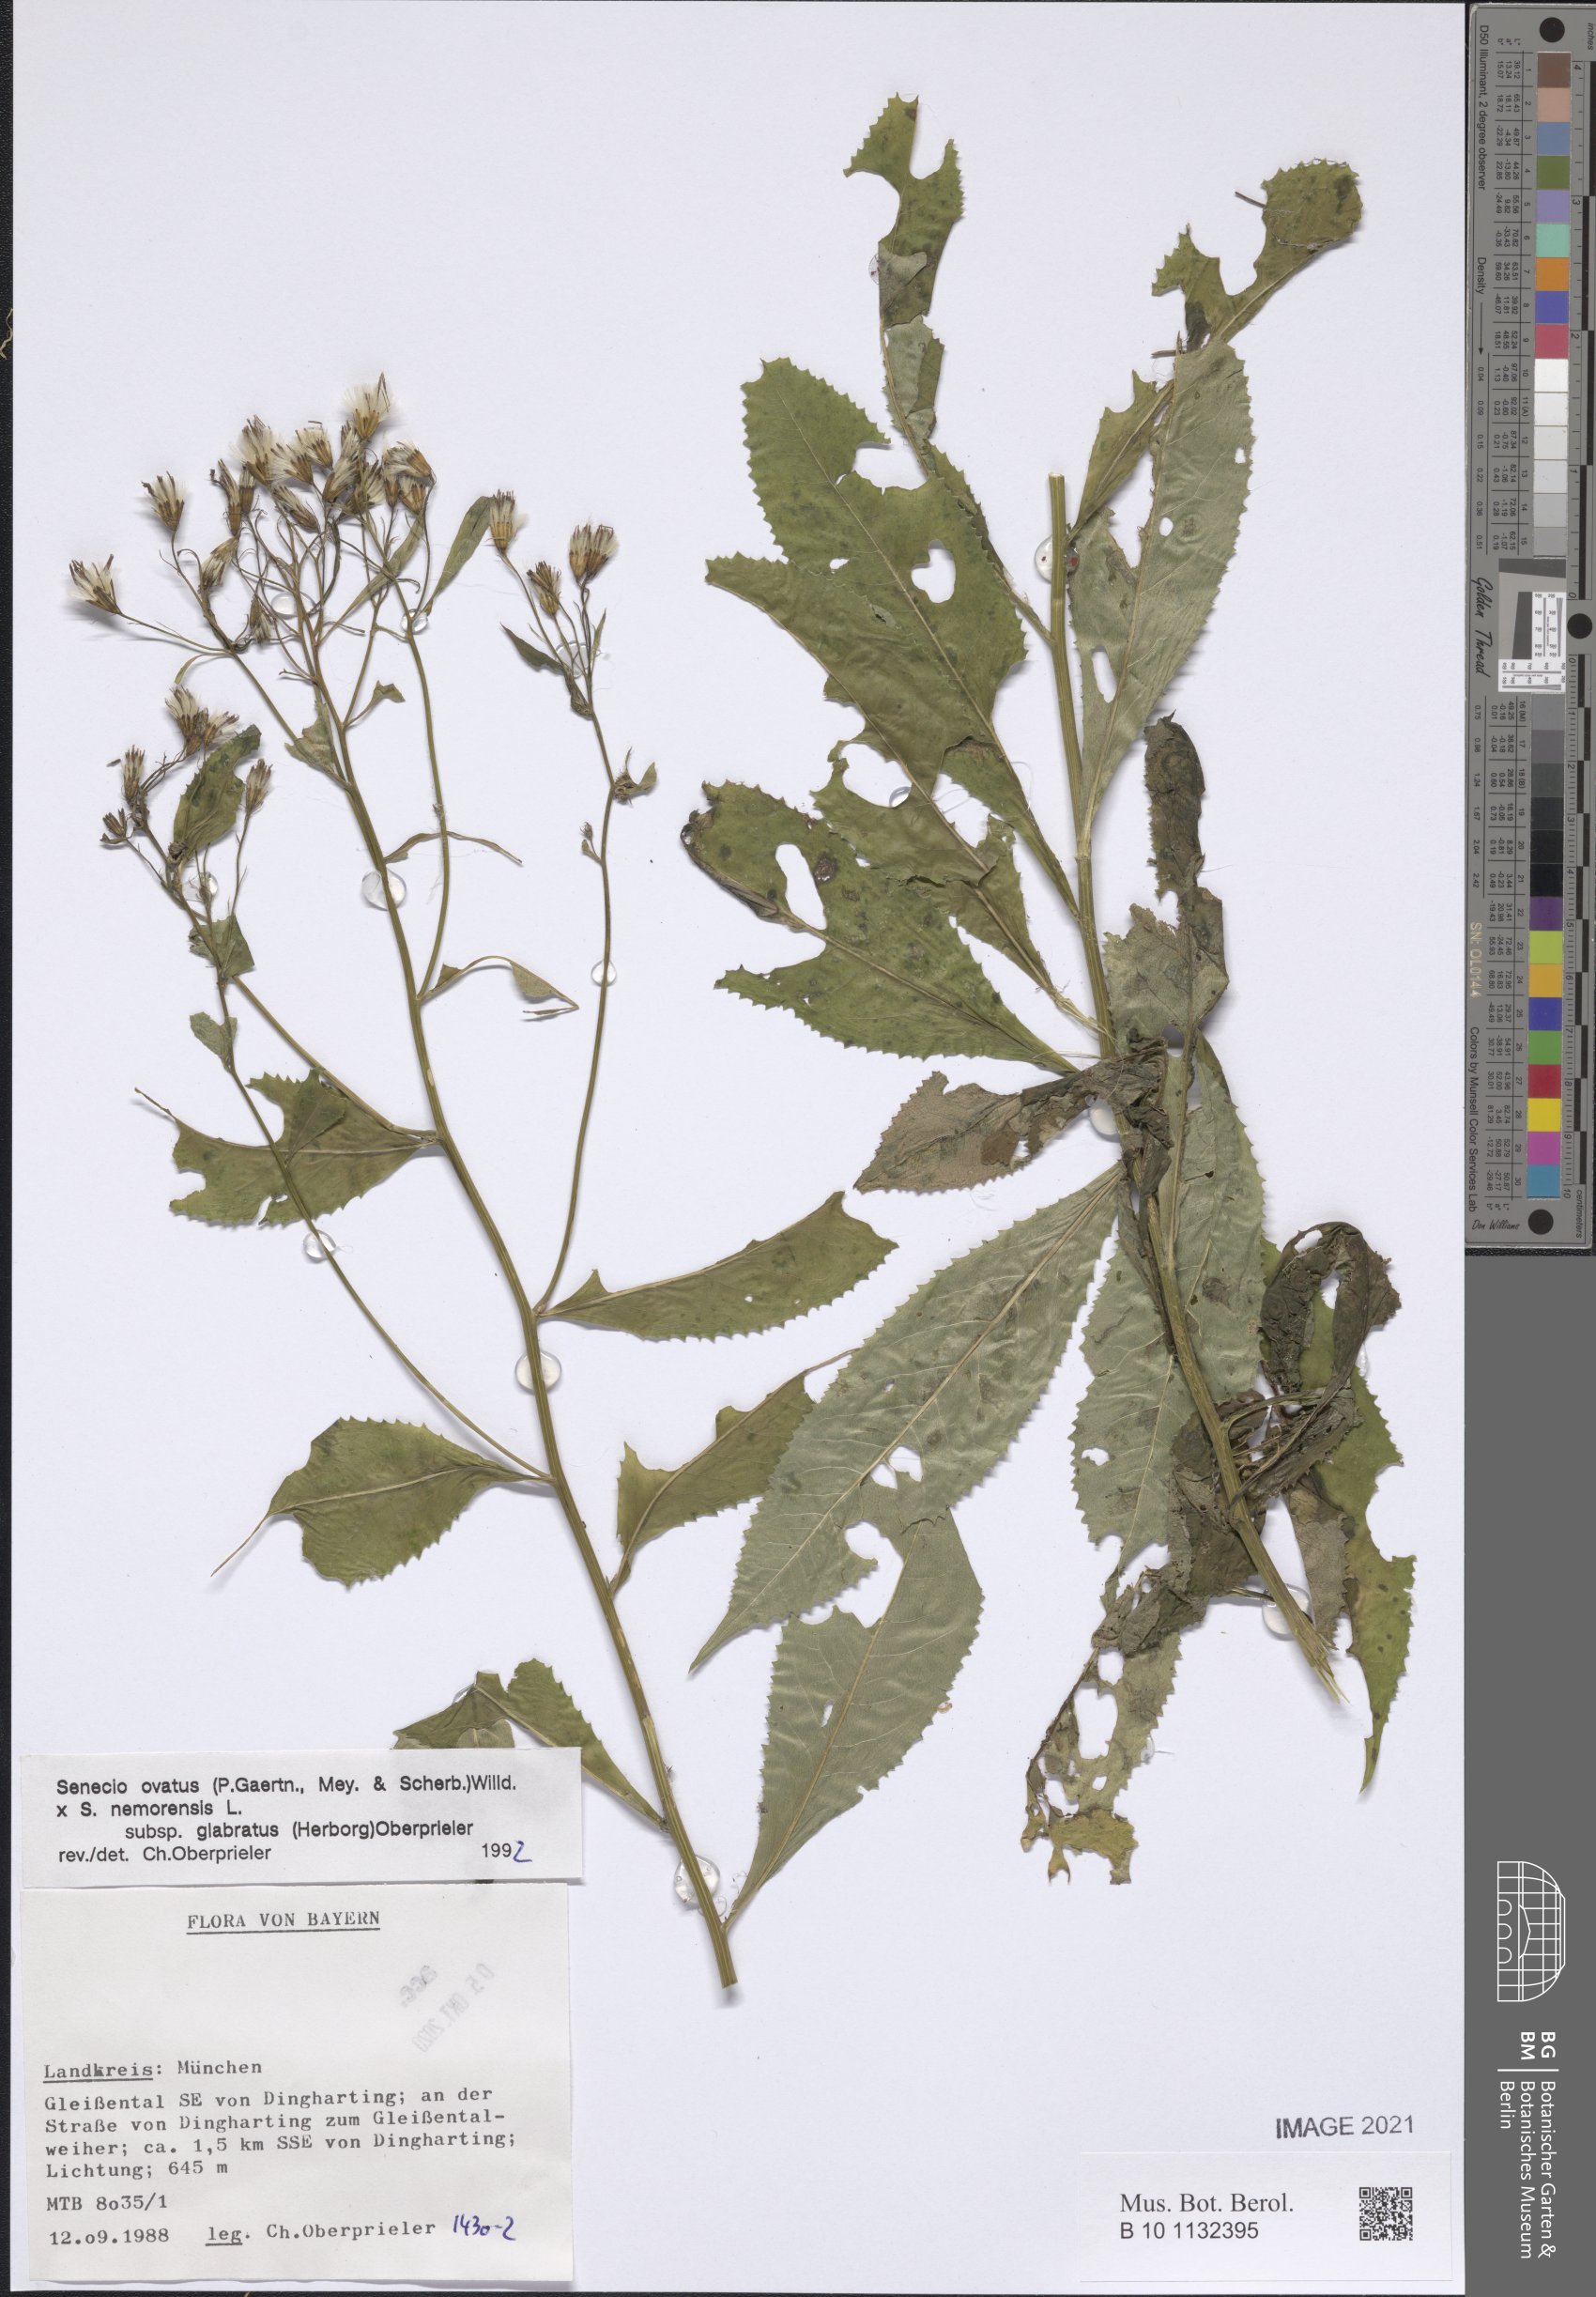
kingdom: Plantae
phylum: Tracheophyta
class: Magnoliopsida
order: Asterales
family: Asteraceae
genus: Senecio
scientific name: Senecio ovatus
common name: Wood ragwort
